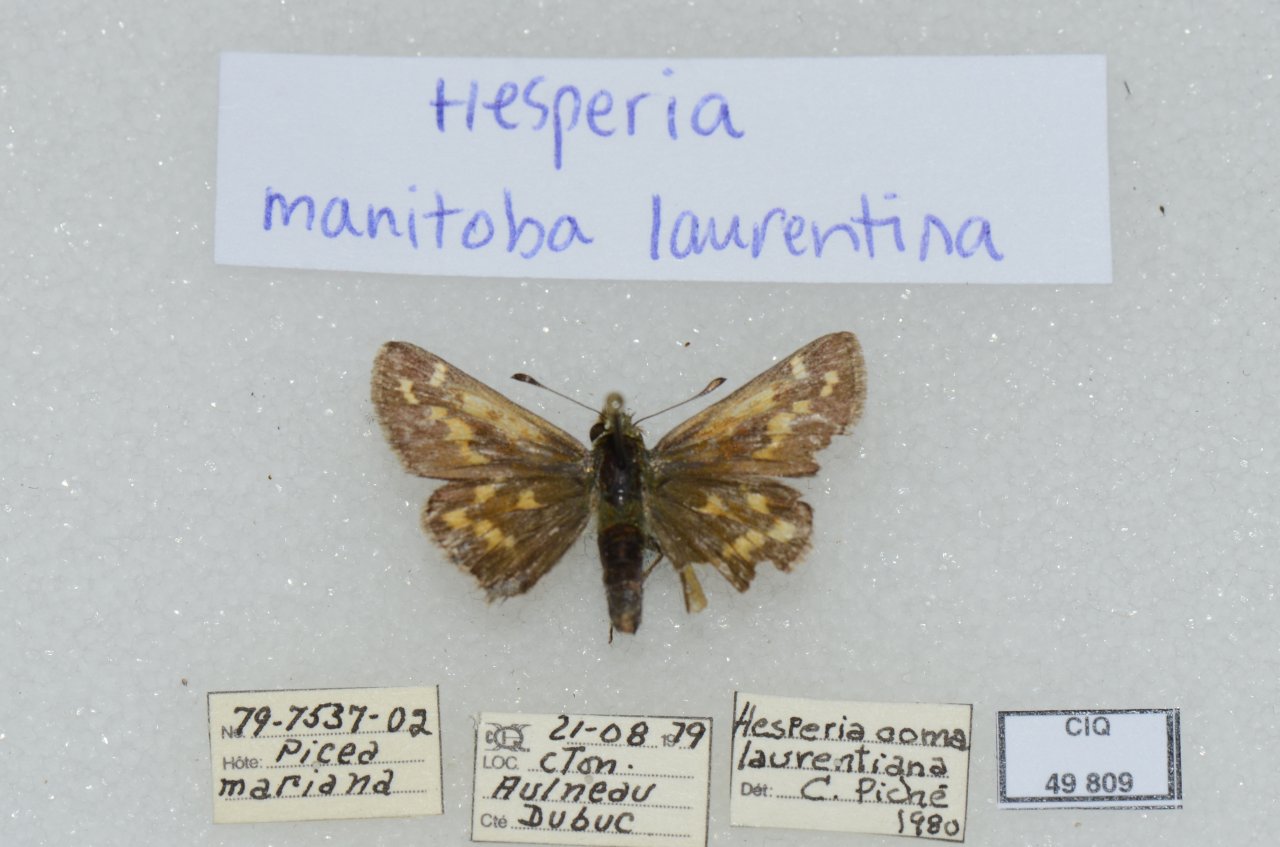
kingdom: Animalia
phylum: Arthropoda
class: Insecta
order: Lepidoptera
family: Hesperiidae
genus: Hesperia
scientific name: Hesperia comma
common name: Common Branded Skipper
